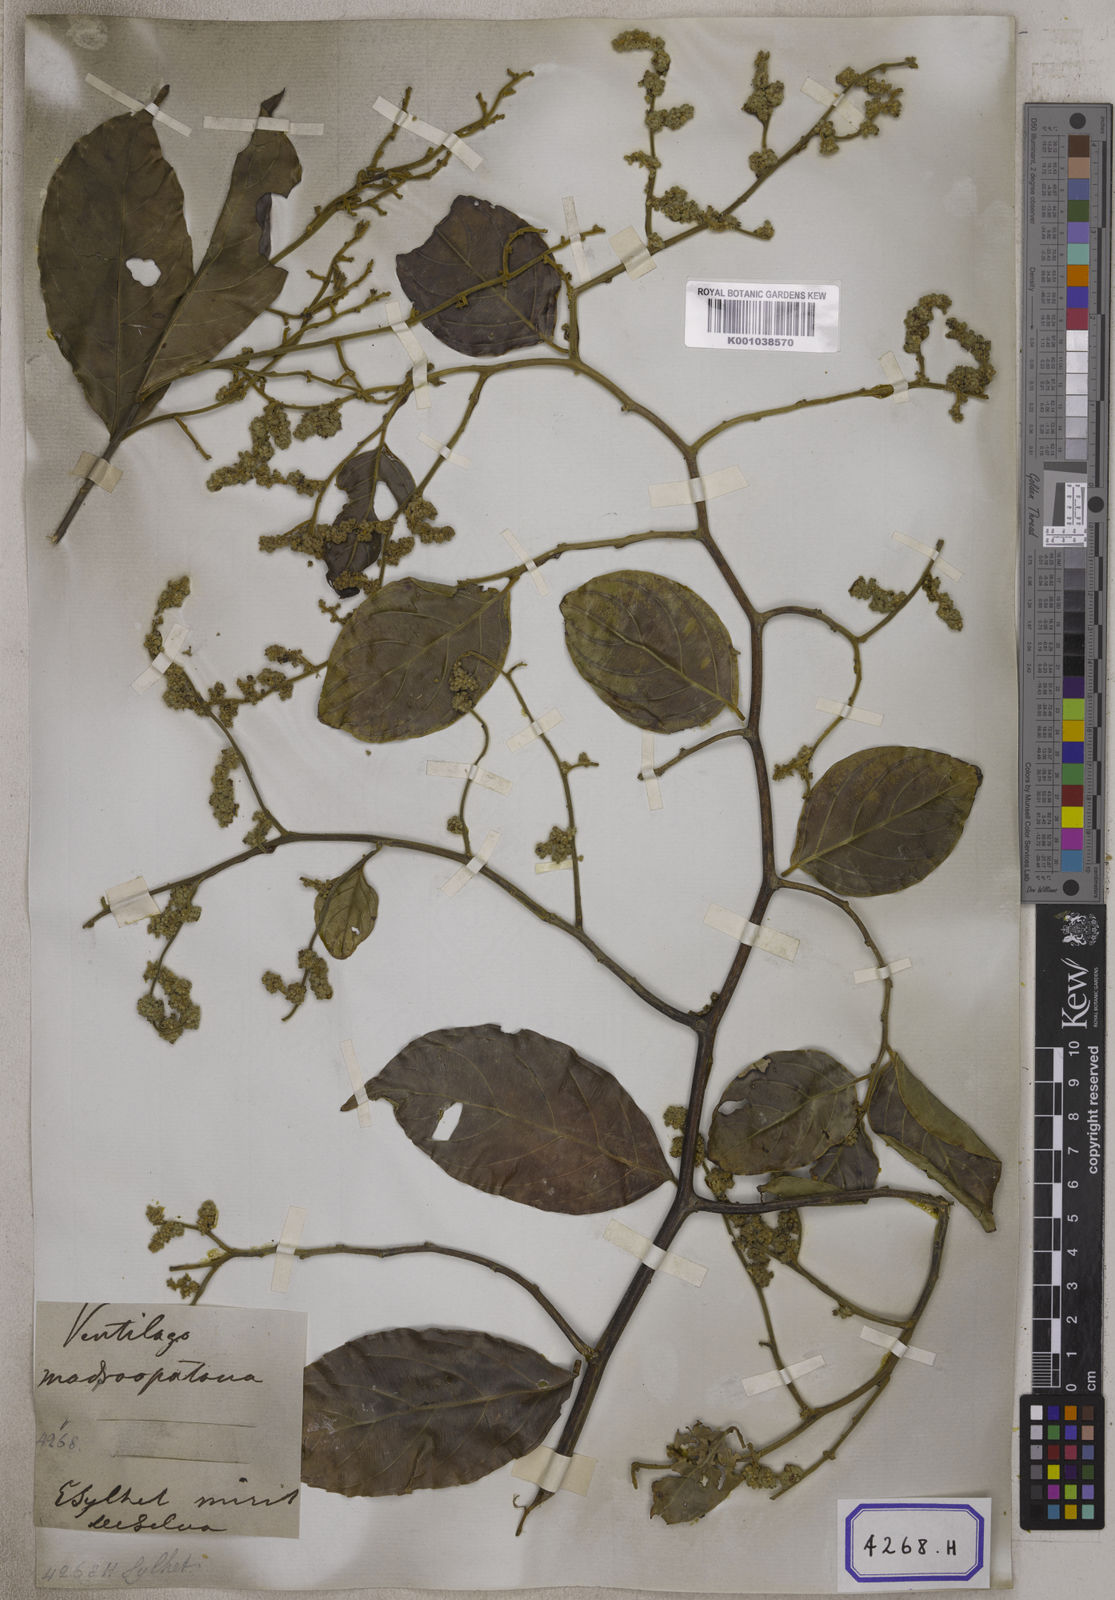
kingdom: Plantae
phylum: Tracheophyta
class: Magnoliopsida
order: Rosales
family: Rhamnaceae
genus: Ventilago
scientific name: Ventilago madraspatana
